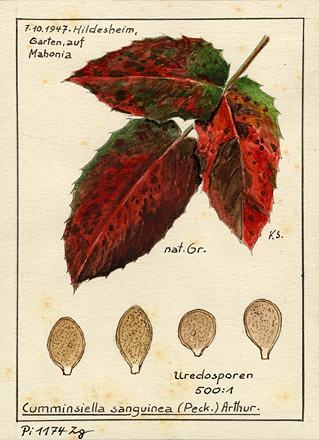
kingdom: Plantae
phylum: Tracheophyta
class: Magnoliopsida
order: Ranunculales
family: Berberidaceae
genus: Mahonia
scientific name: Mahonia
